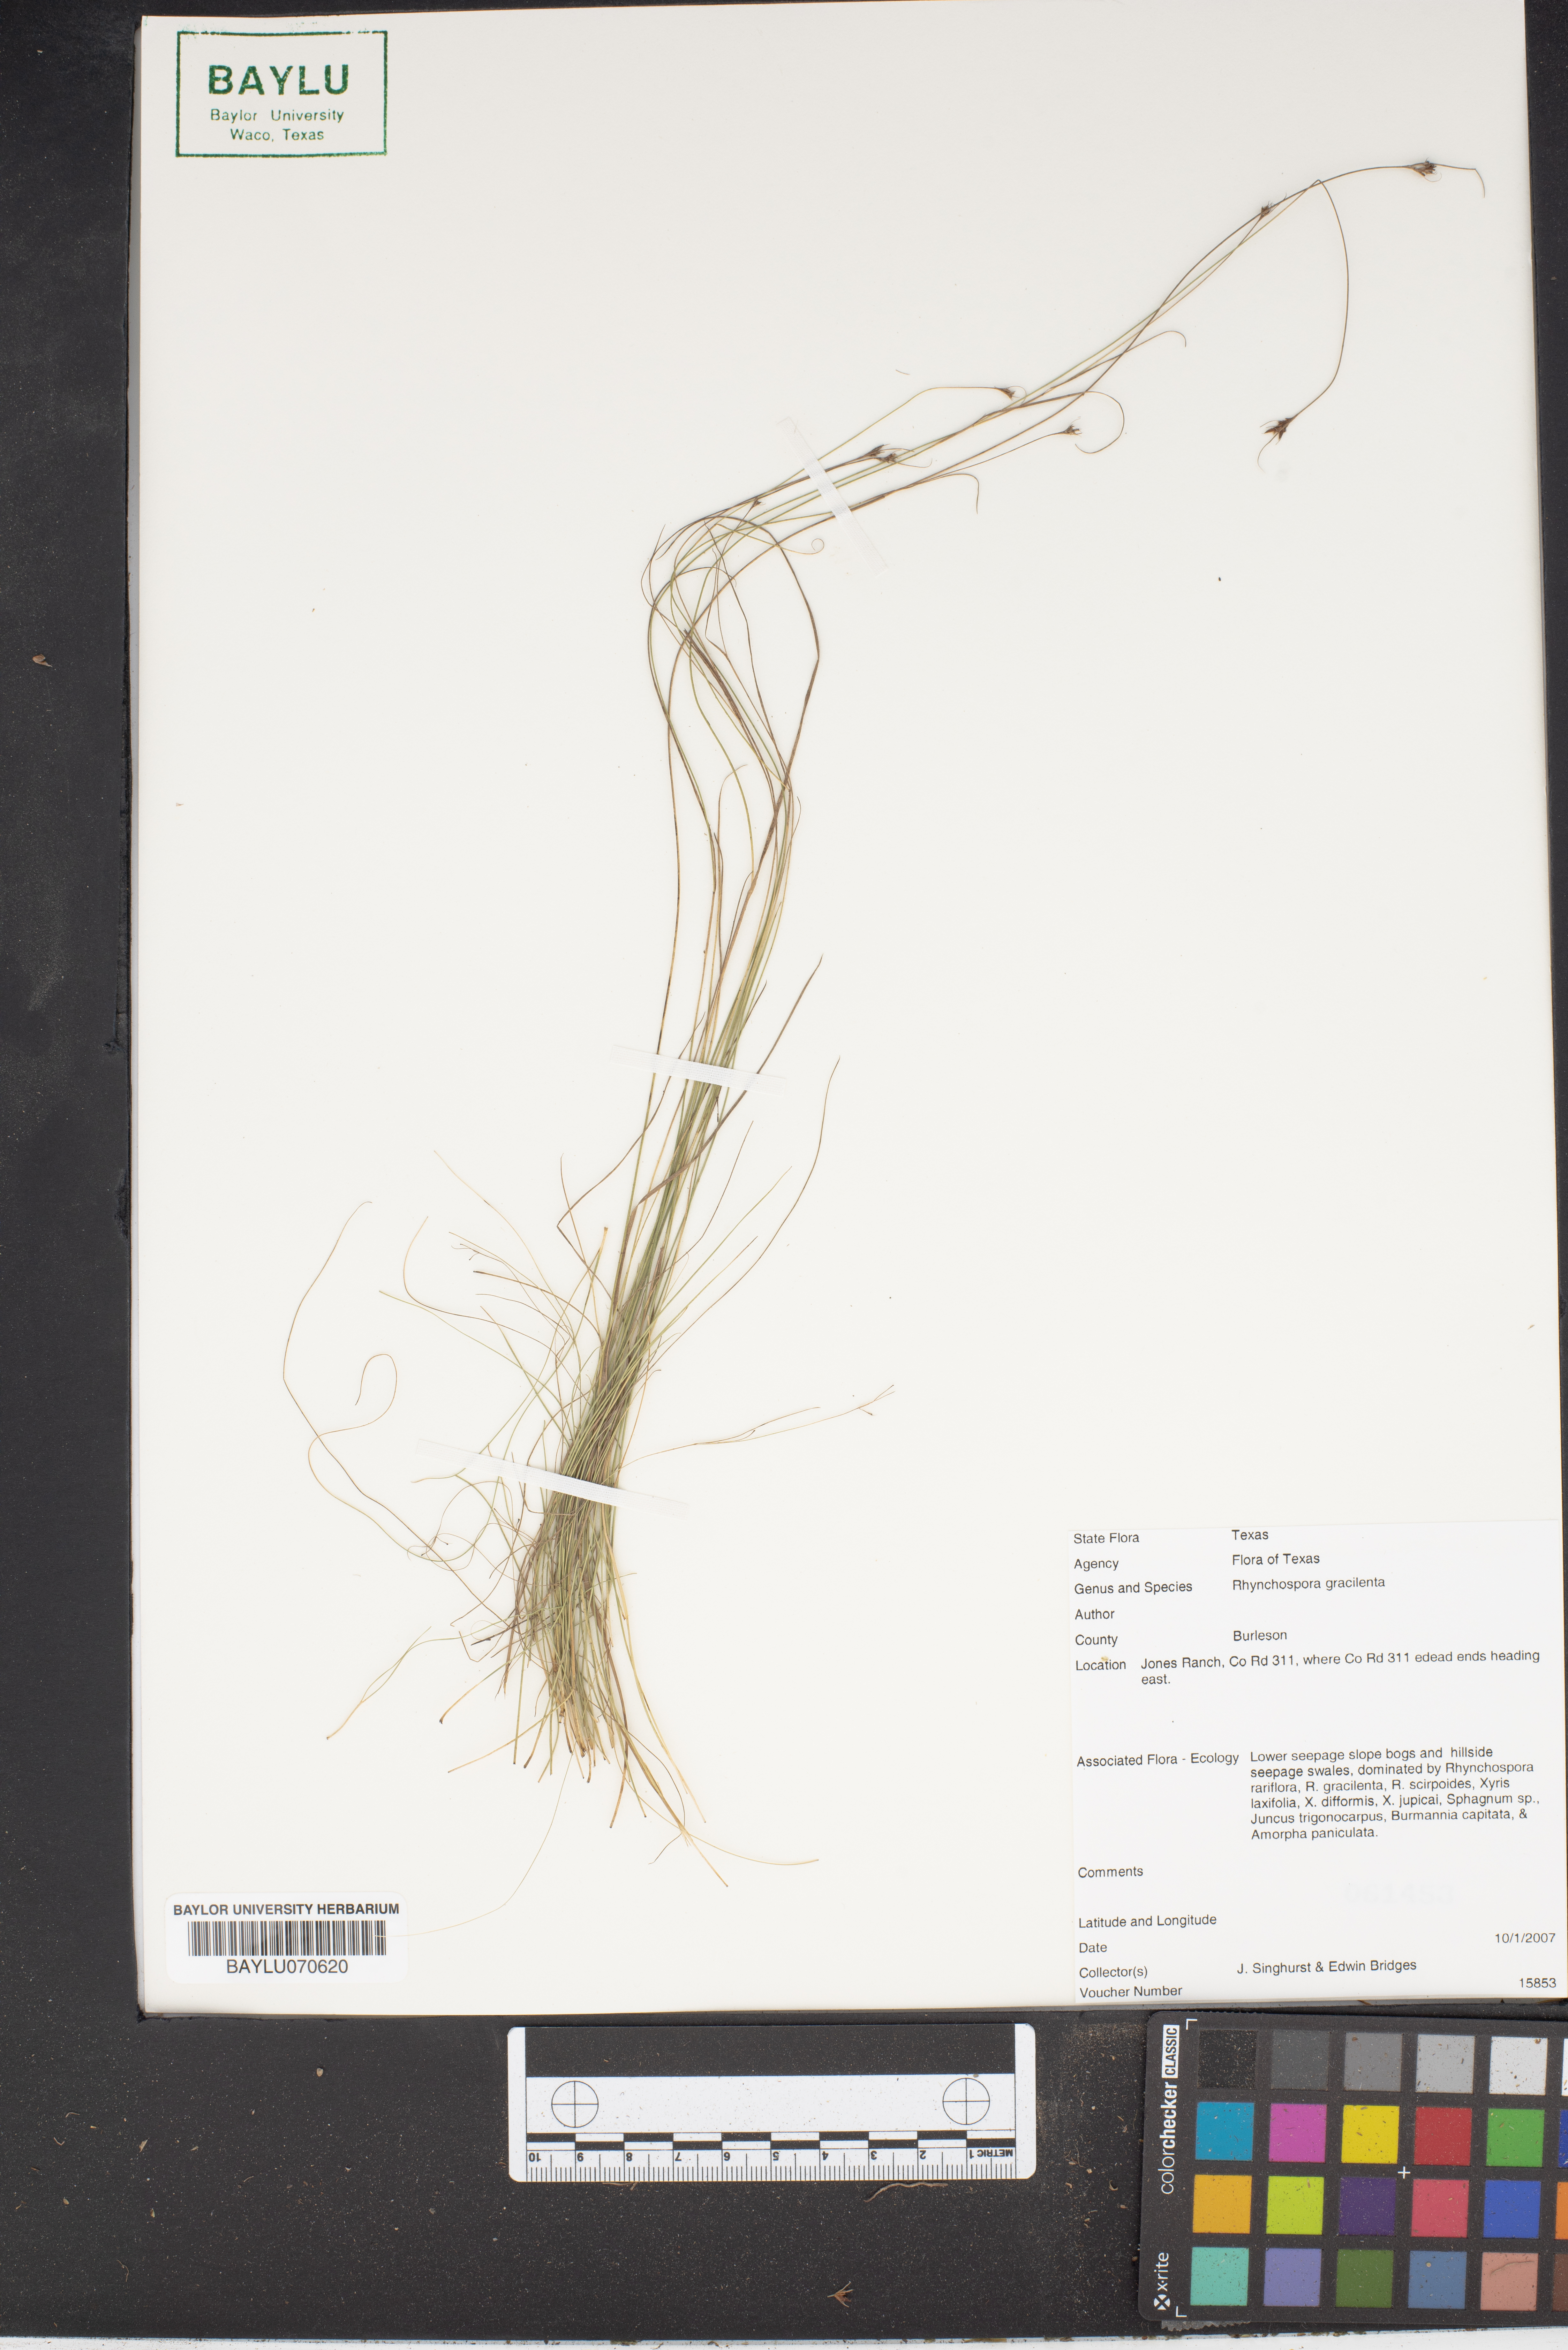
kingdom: Plantae
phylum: Tracheophyta
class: Liliopsida
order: Poales
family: Cyperaceae
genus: Rhynchospora
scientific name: Rhynchospora gracilenta
